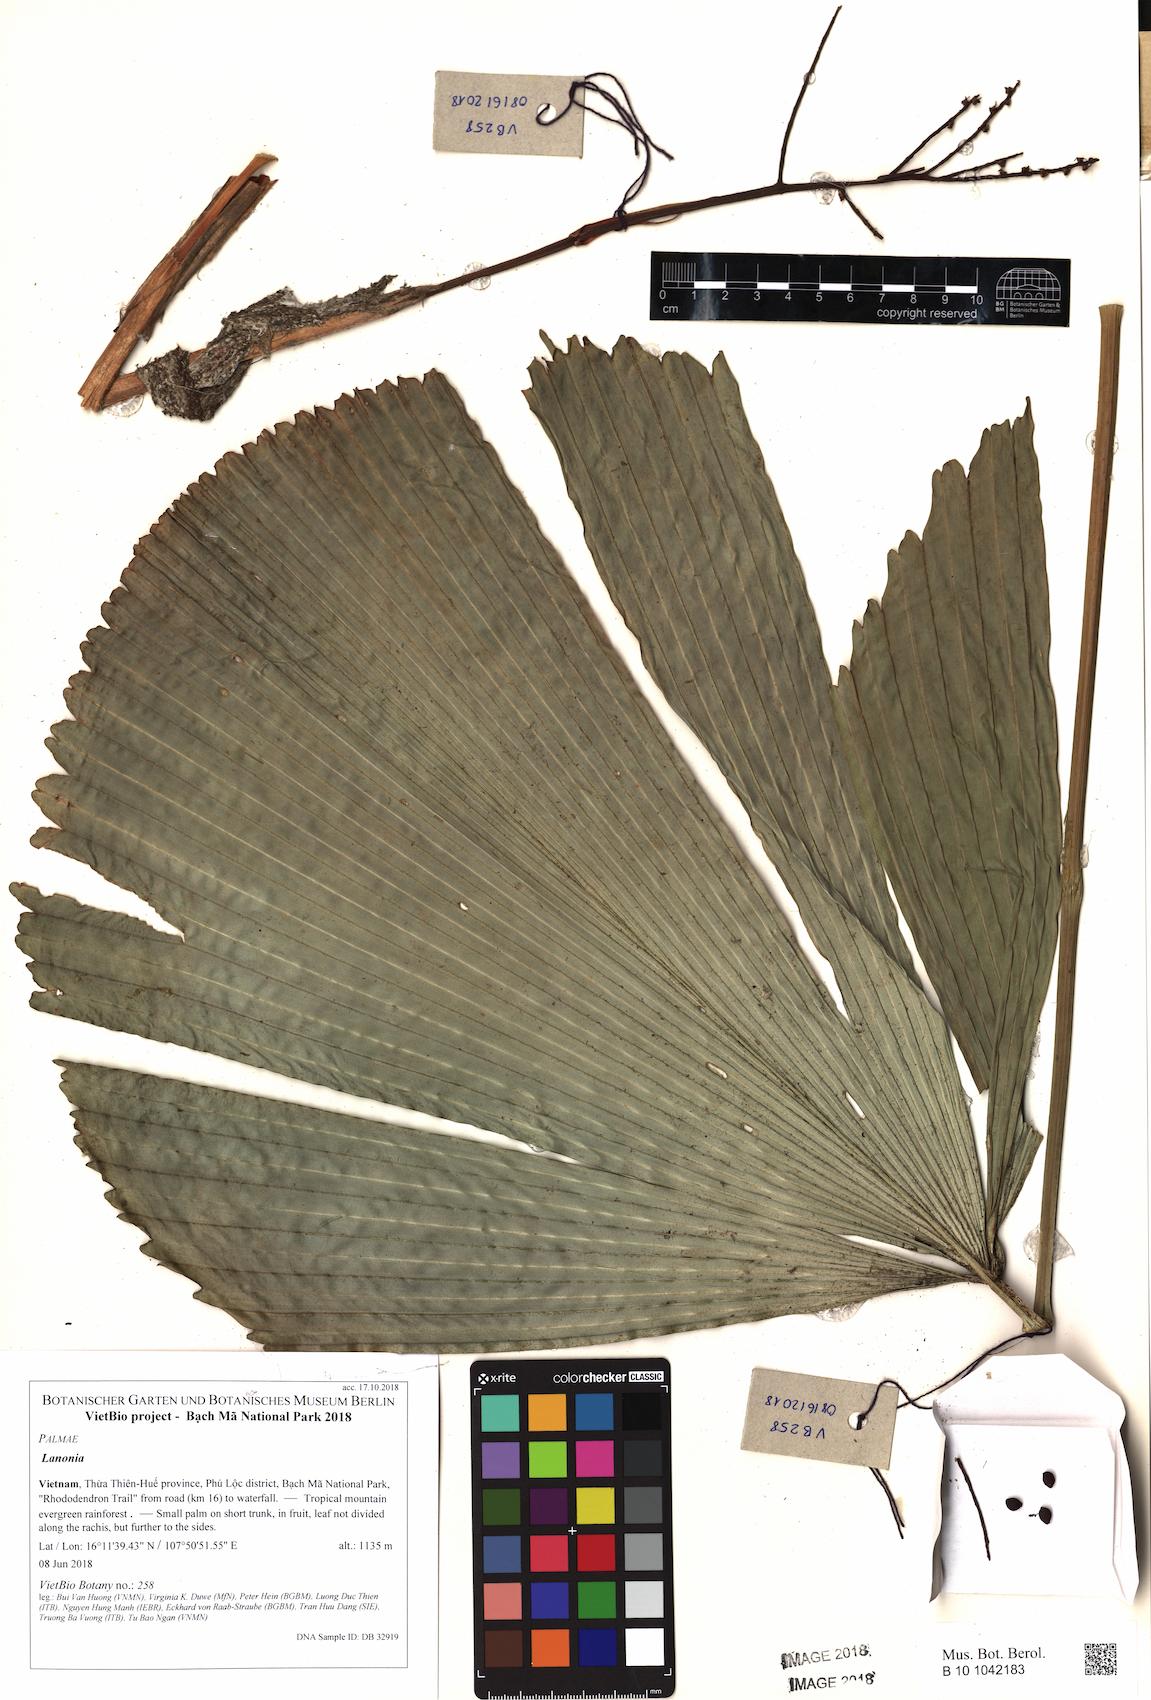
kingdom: Plantae
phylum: Tracheophyta
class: Liliopsida
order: Arecales
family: Arecaceae
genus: Lanonia
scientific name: Lanonia
